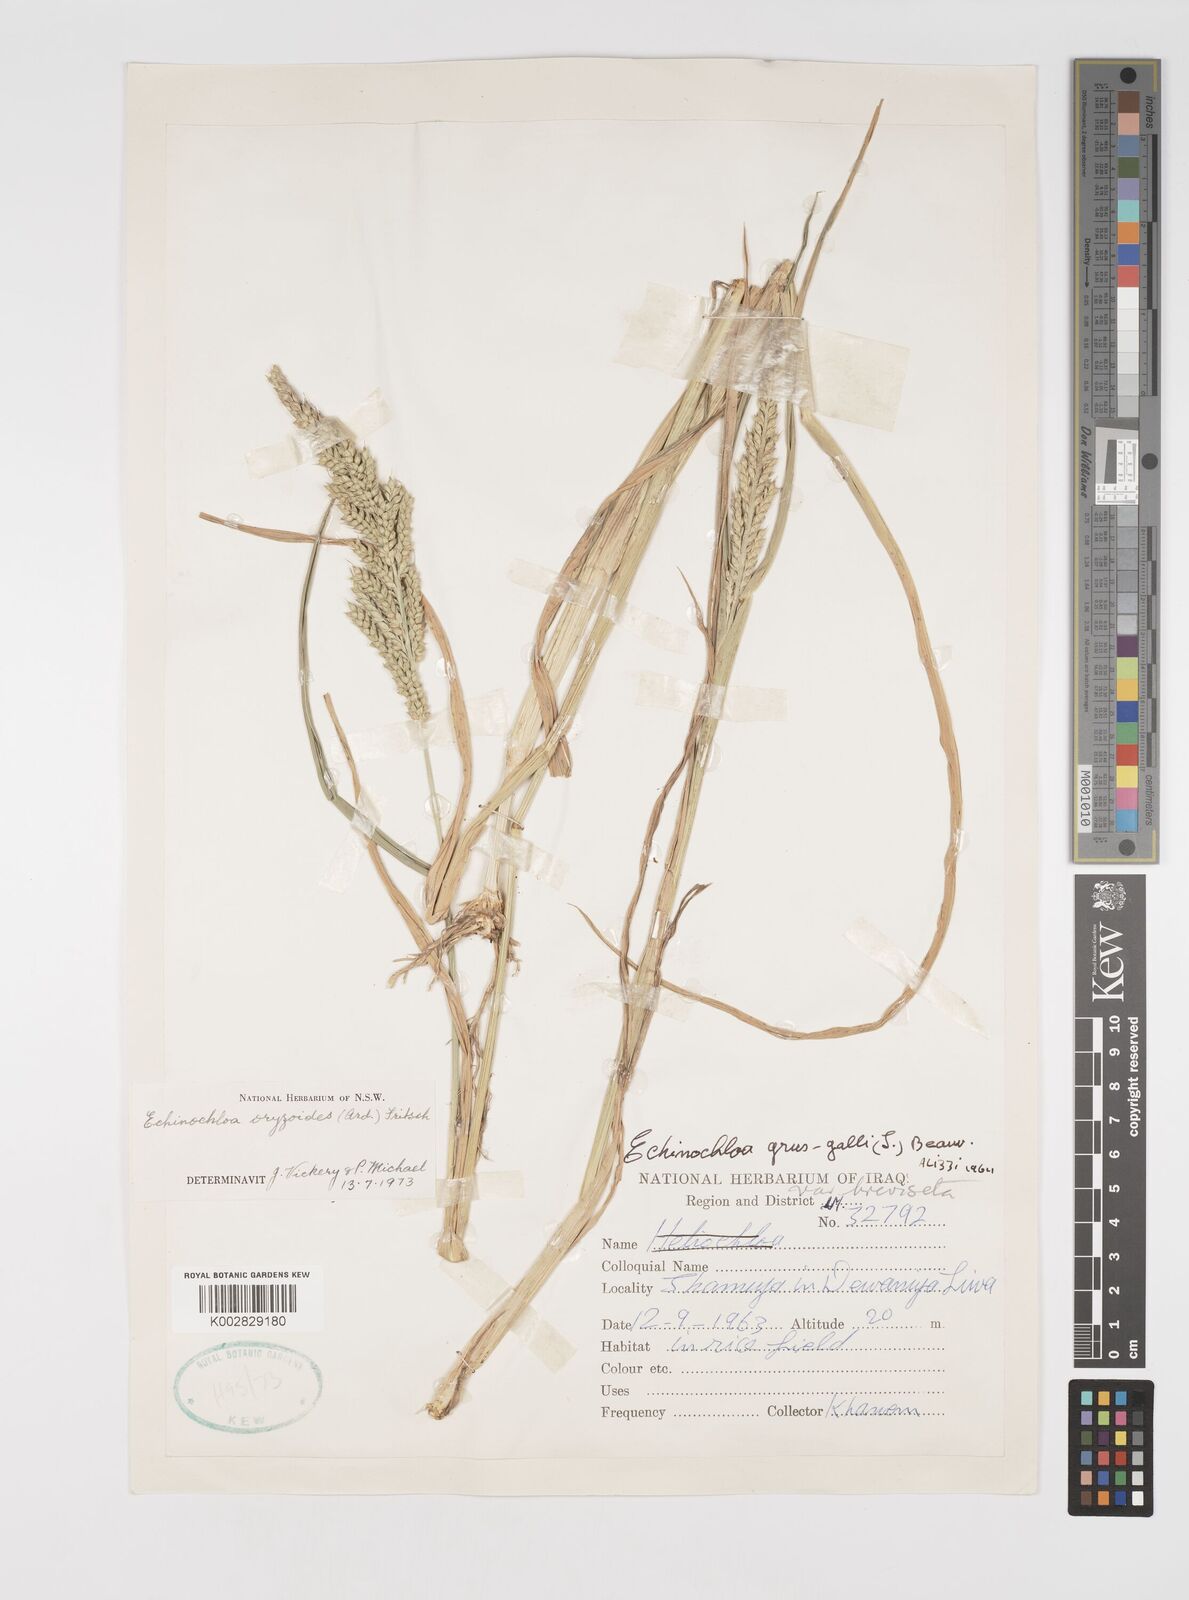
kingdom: Plantae
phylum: Tracheophyta
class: Liliopsida
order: Poales
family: Poaceae
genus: Echinochloa
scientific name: Echinochloa crus-galli
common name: Cockspur
